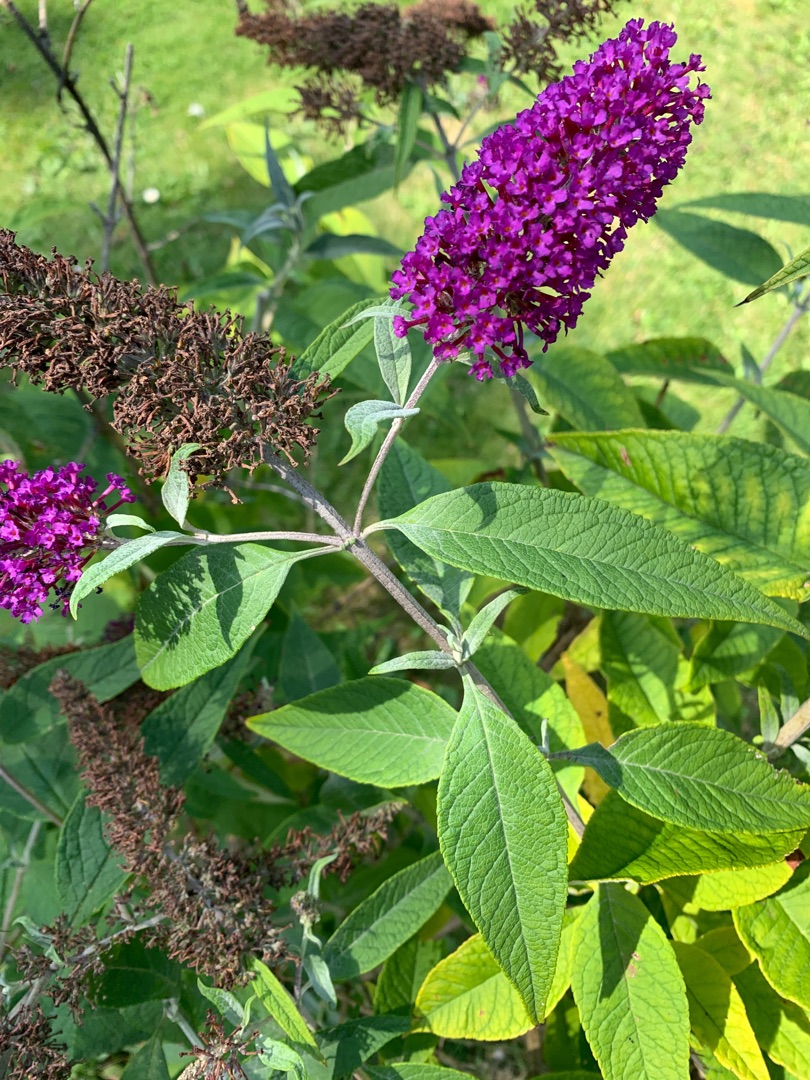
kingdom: Plantae
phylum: Tracheophyta
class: Magnoliopsida
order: Lamiales
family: Scrophulariaceae
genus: Buddleja
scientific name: Buddleja davidii
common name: Sommerfuglebusk
